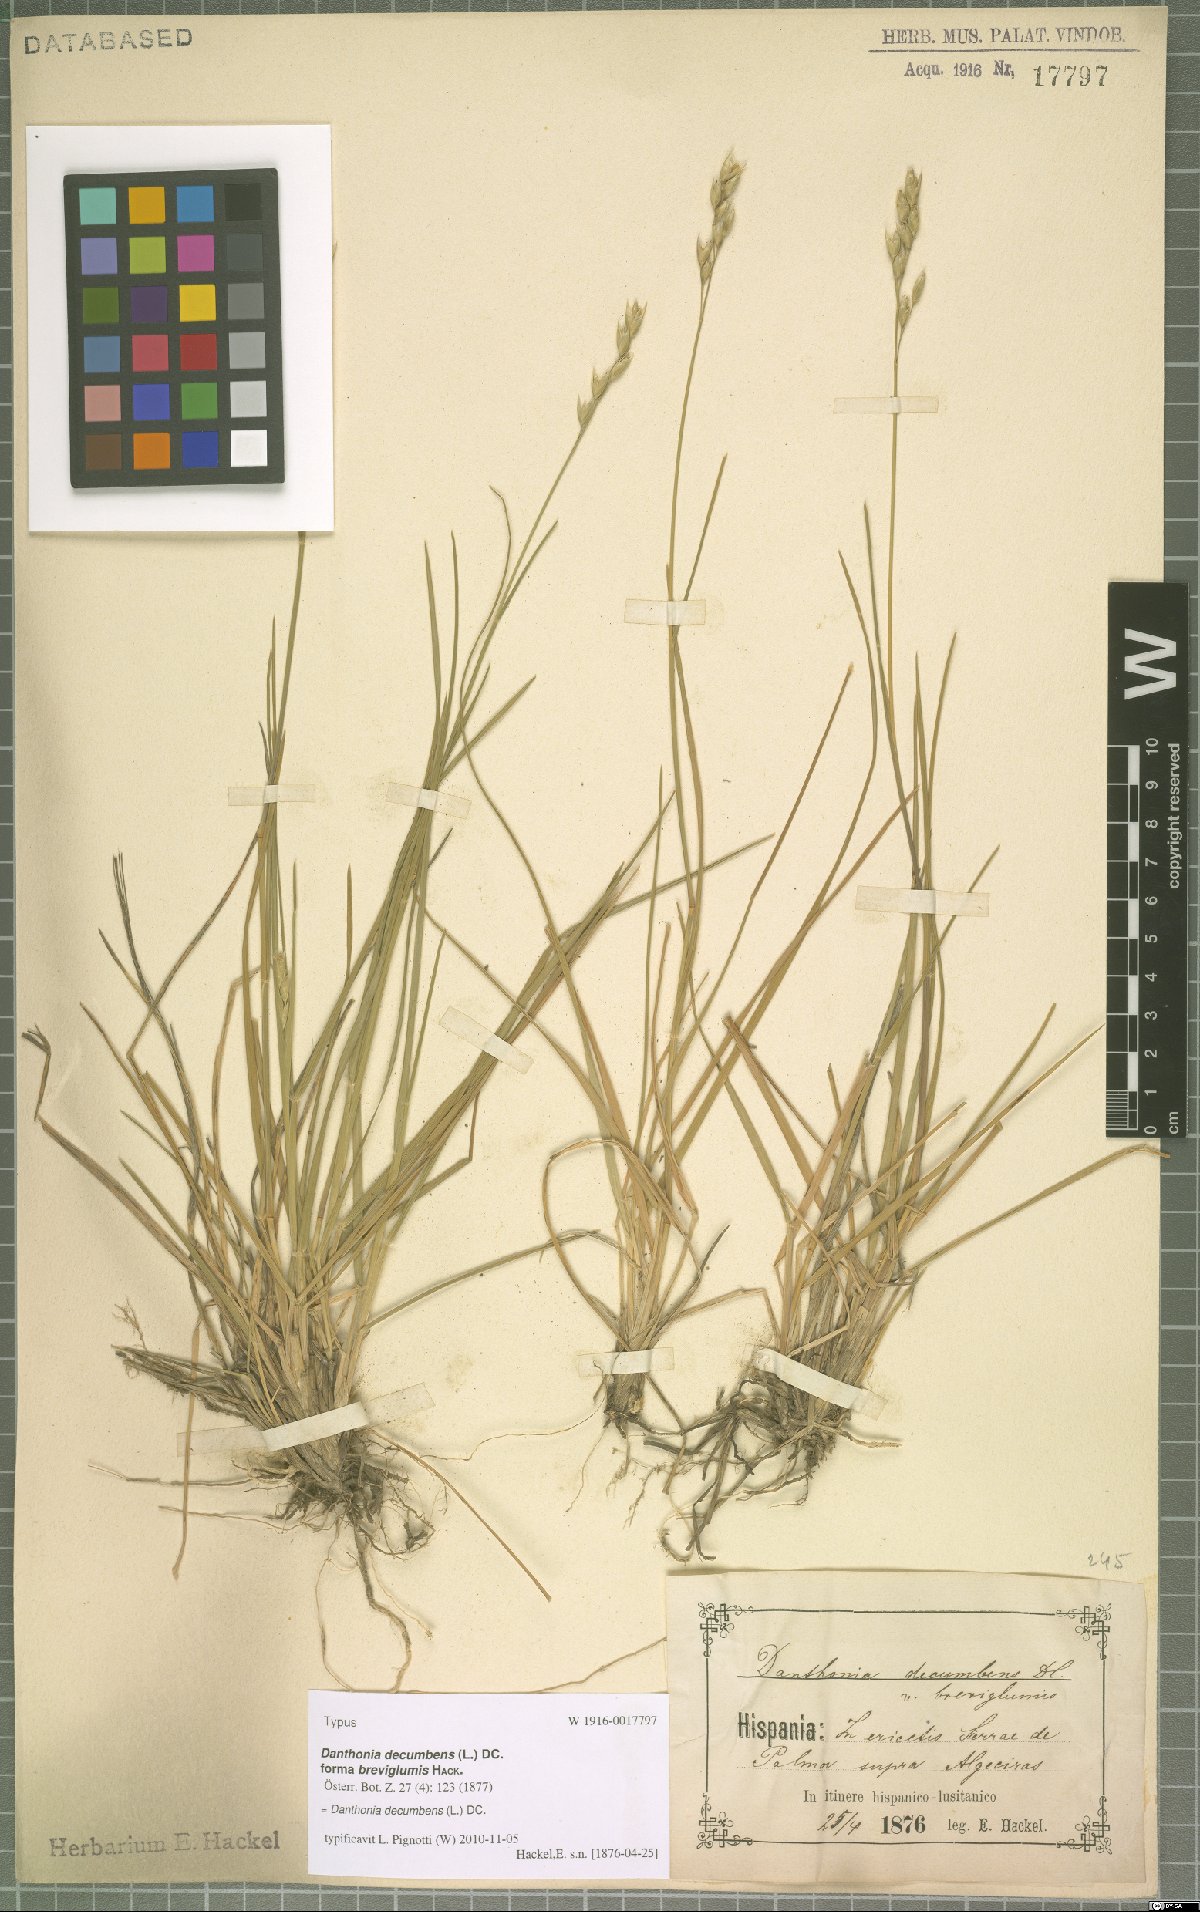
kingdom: Plantae
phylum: Tracheophyta
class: Liliopsida
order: Poales
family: Poaceae
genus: Danthonia
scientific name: Danthonia decumbens
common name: Common heathgrass
